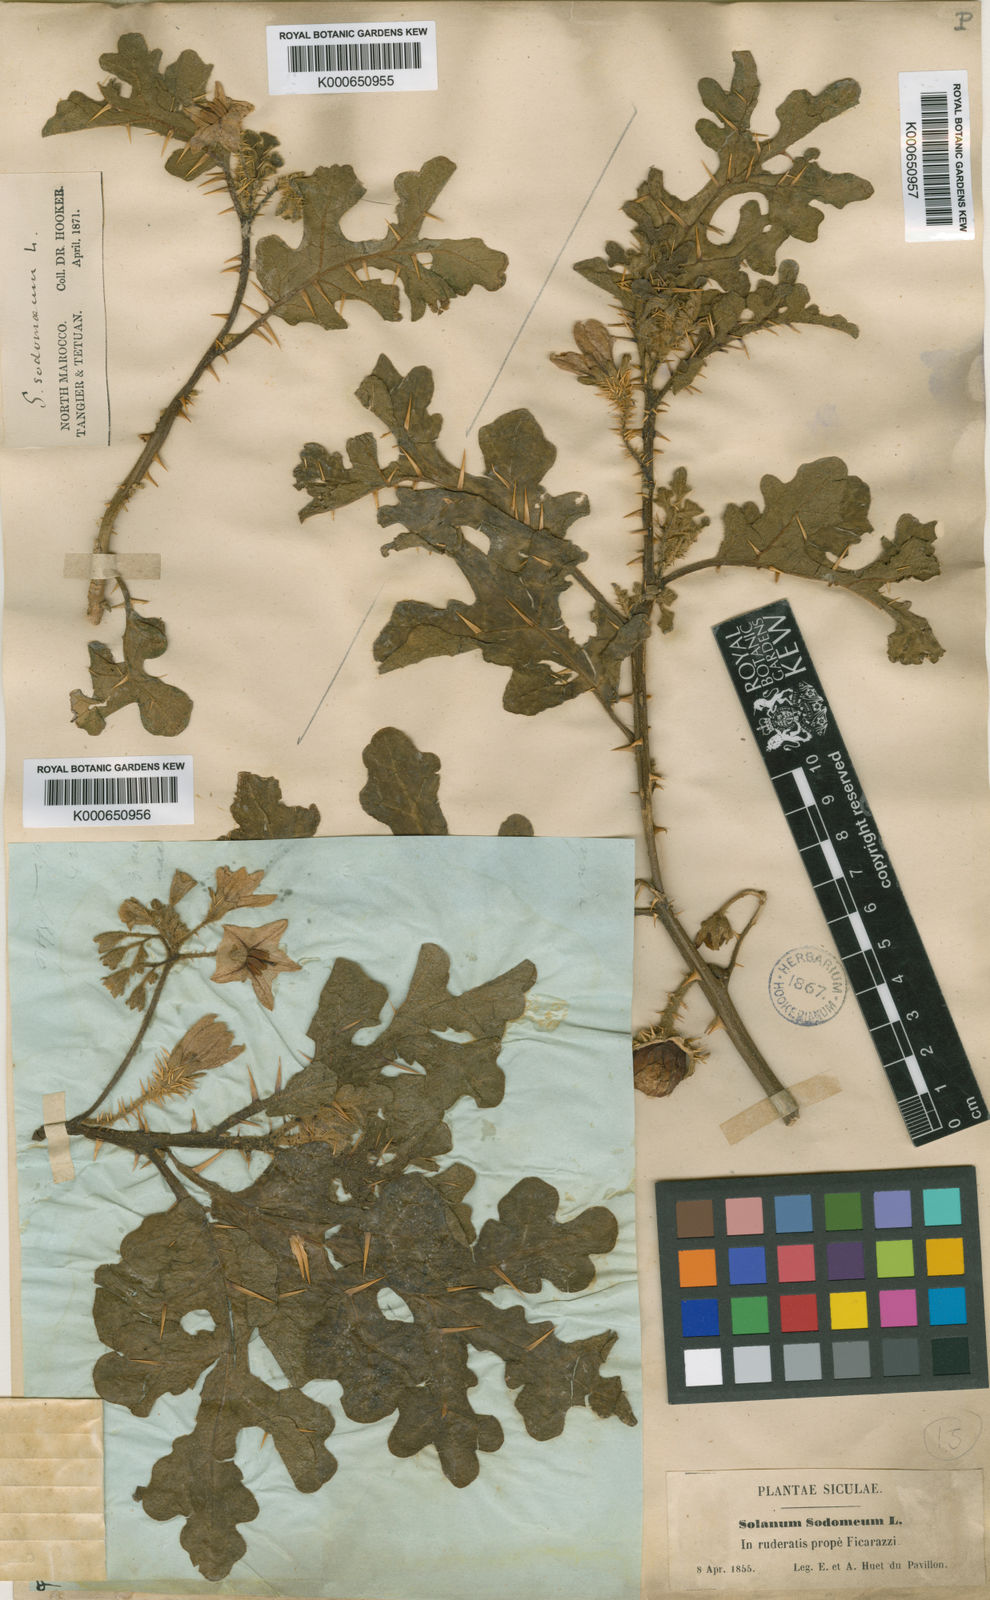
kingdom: Plantae
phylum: Tracheophyta
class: Magnoliopsida
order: Solanales
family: Solanaceae
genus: Solanum
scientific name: Solanum anguivi
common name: Forest bitterberry
